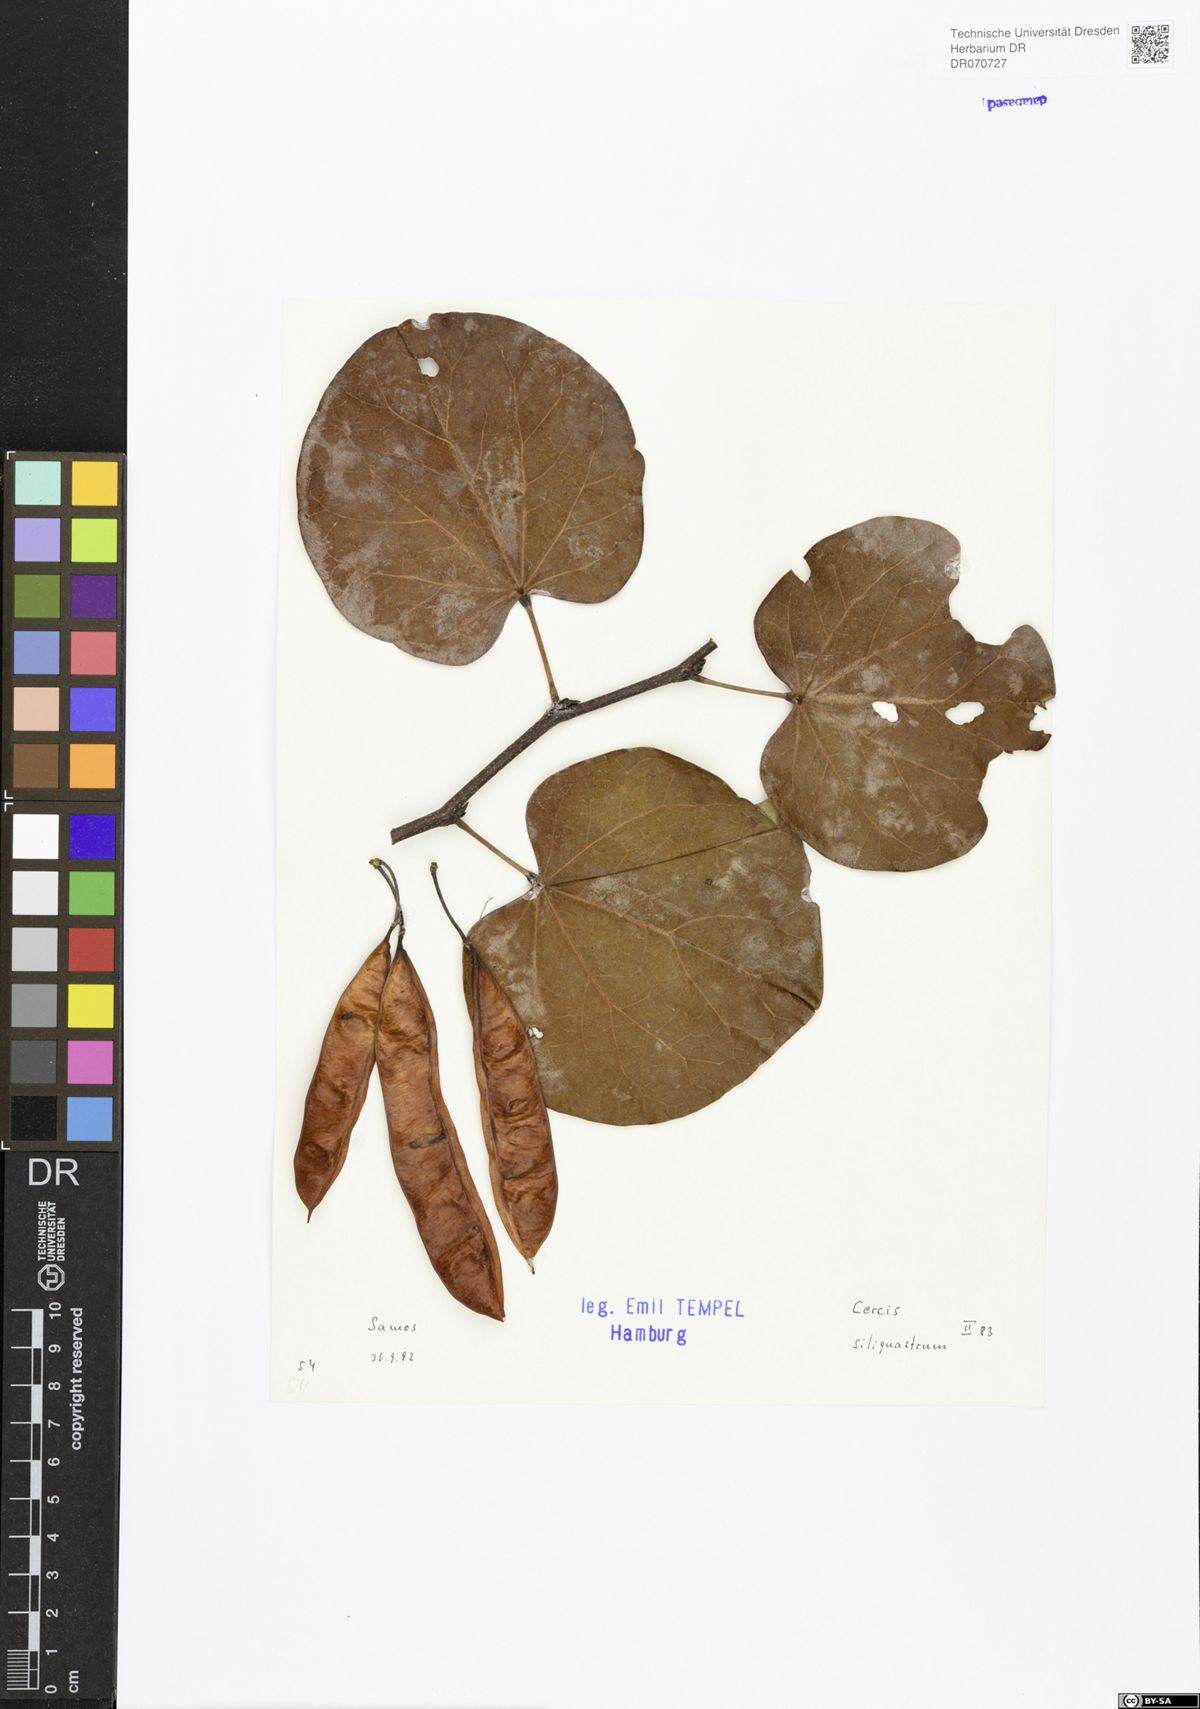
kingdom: Plantae
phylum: Tracheophyta
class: Magnoliopsida
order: Fabales
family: Fabaceae
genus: Cercis
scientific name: Cercis siliquastrum
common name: Judas tree
